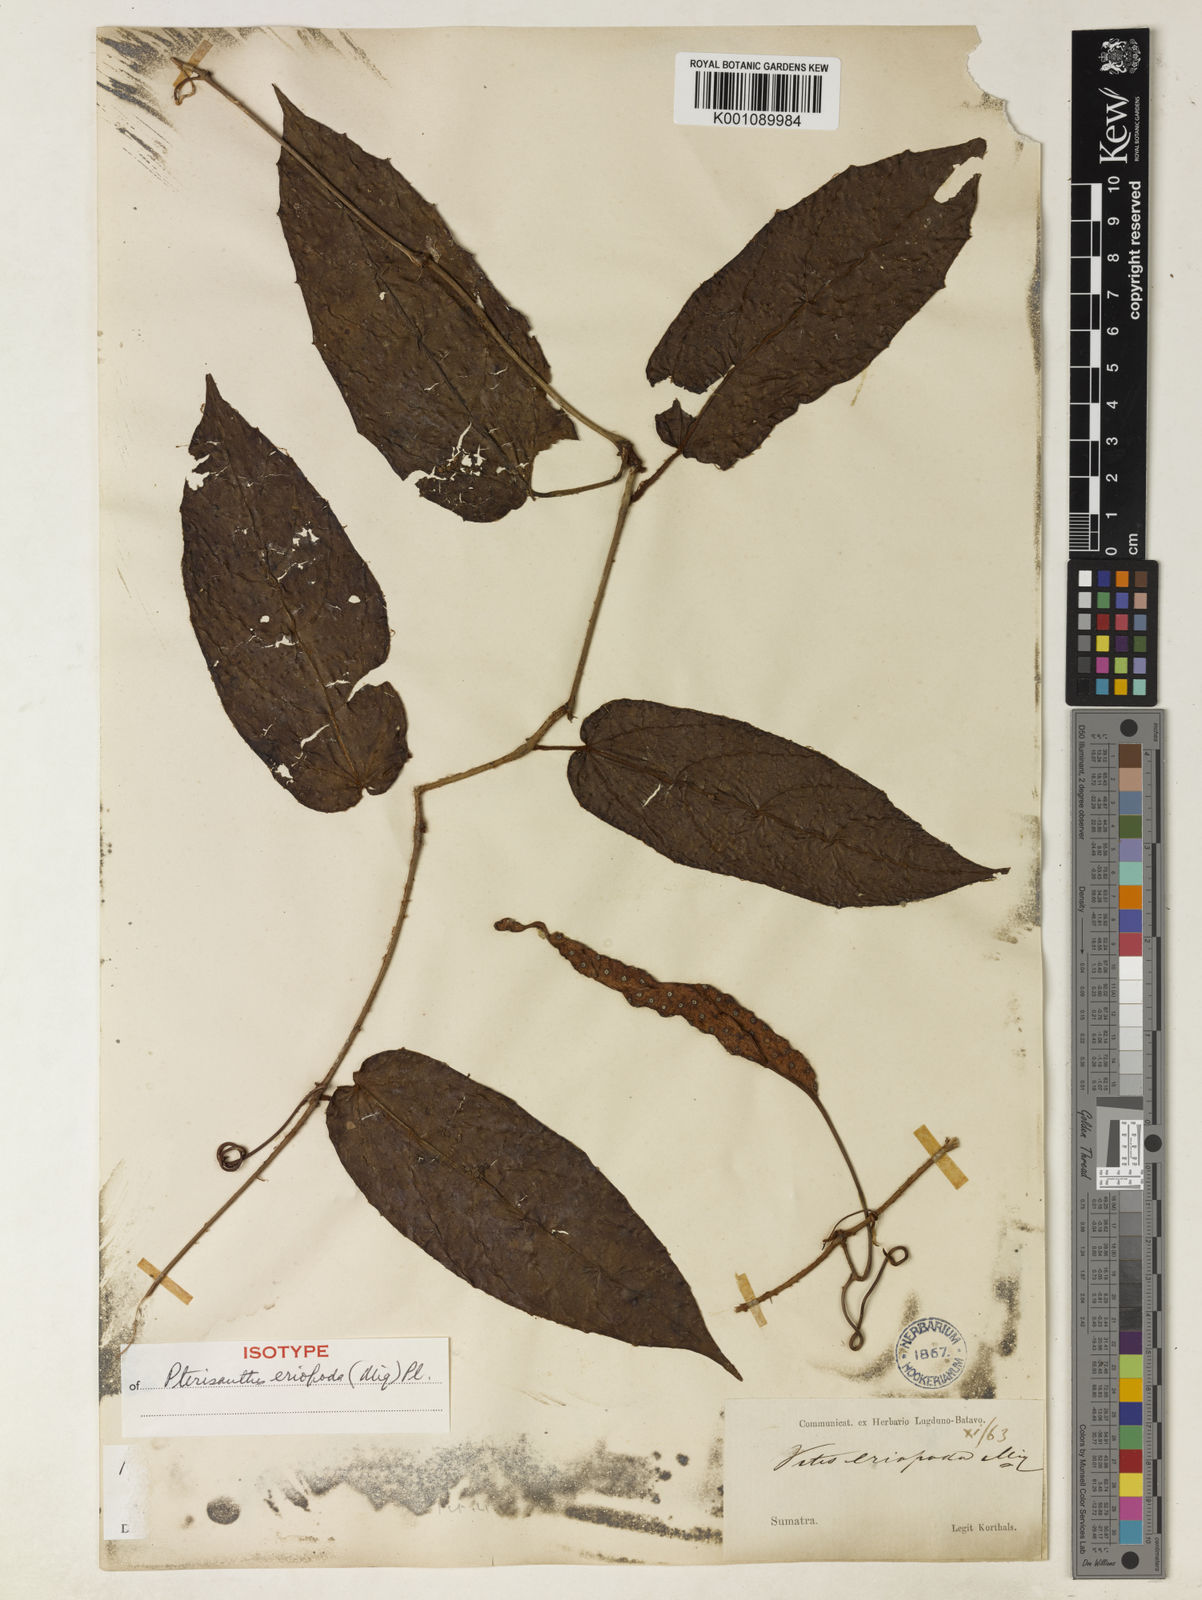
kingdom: Plantae
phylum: Tracheophyta
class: Magnoliopsida
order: Vitales
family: Vitaceae
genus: Pterisanthes
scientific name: Pterisanthes eriopoda
